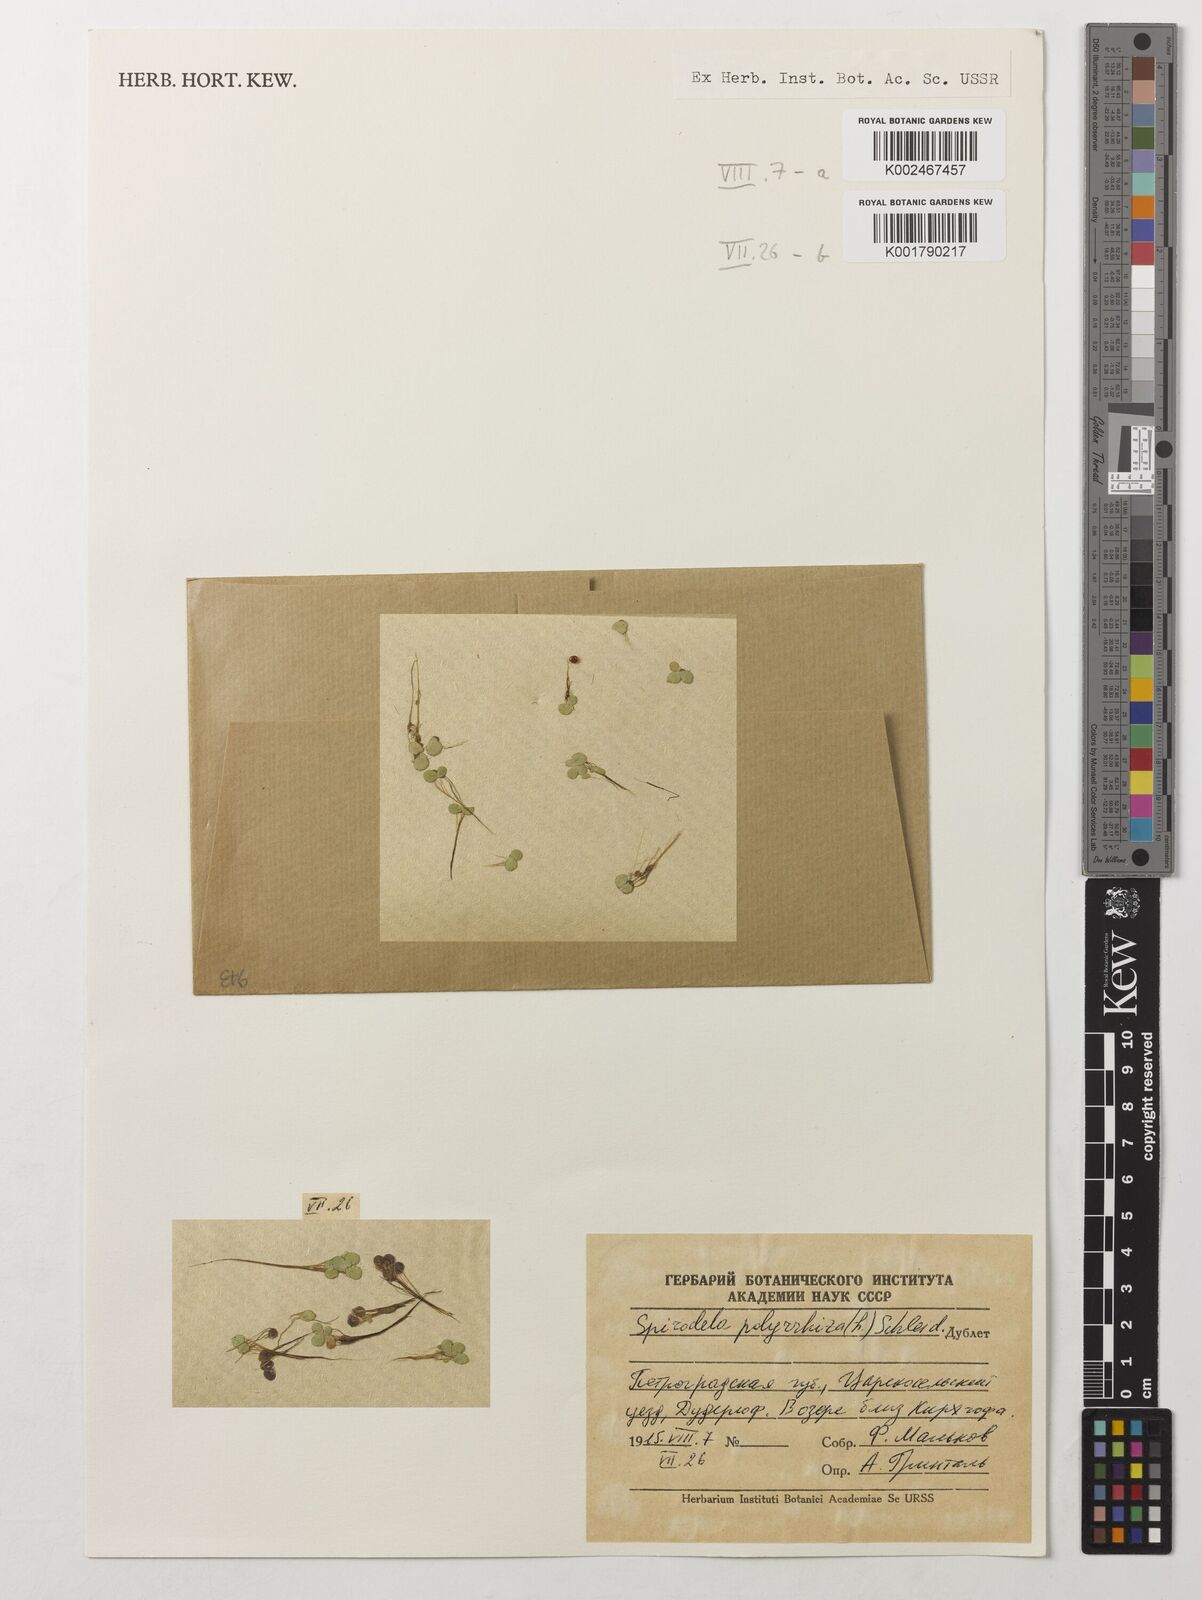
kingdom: Plantae
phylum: Tracheophyta
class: Liliopsida
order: Alismatales
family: Araceae
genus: Spirodela
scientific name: Spirodela polyrhiza
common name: Great duckweed
